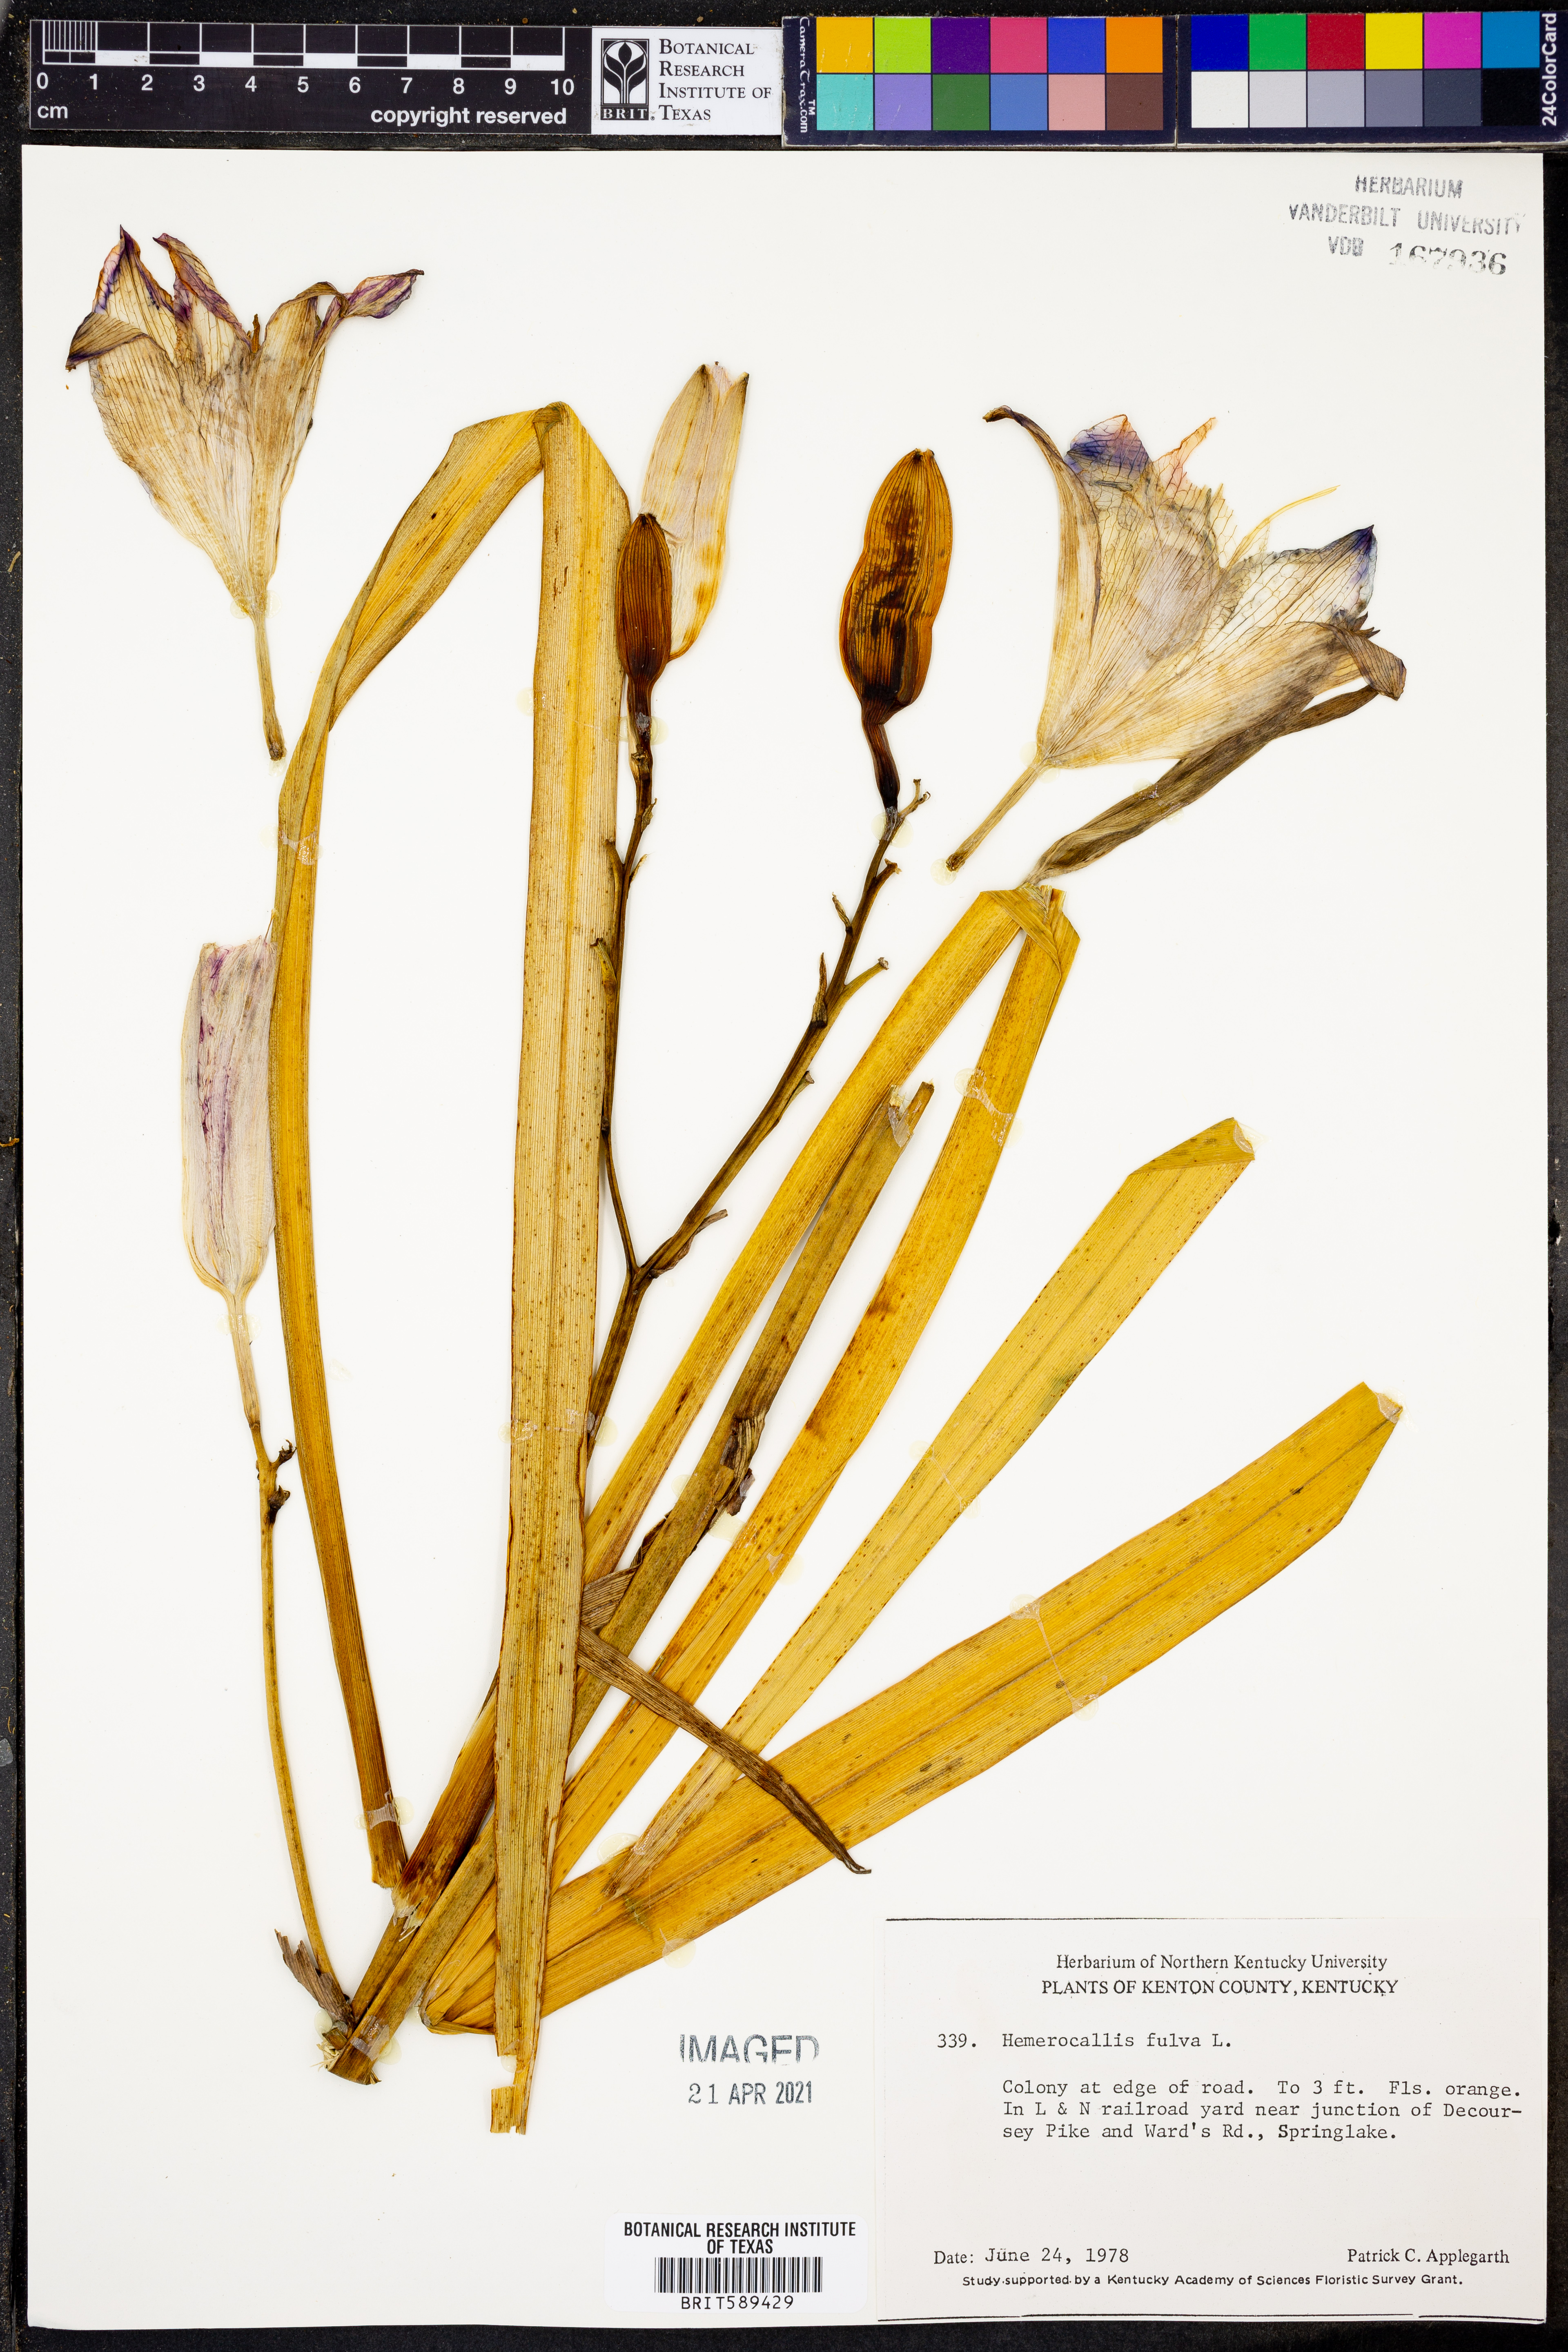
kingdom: Plantae
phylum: Tracheophyta
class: Liliopsida
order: Asparagales
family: Asphodelaceae
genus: Hemerocallis
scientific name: Hemerocallis fulva
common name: Orange day-lily
